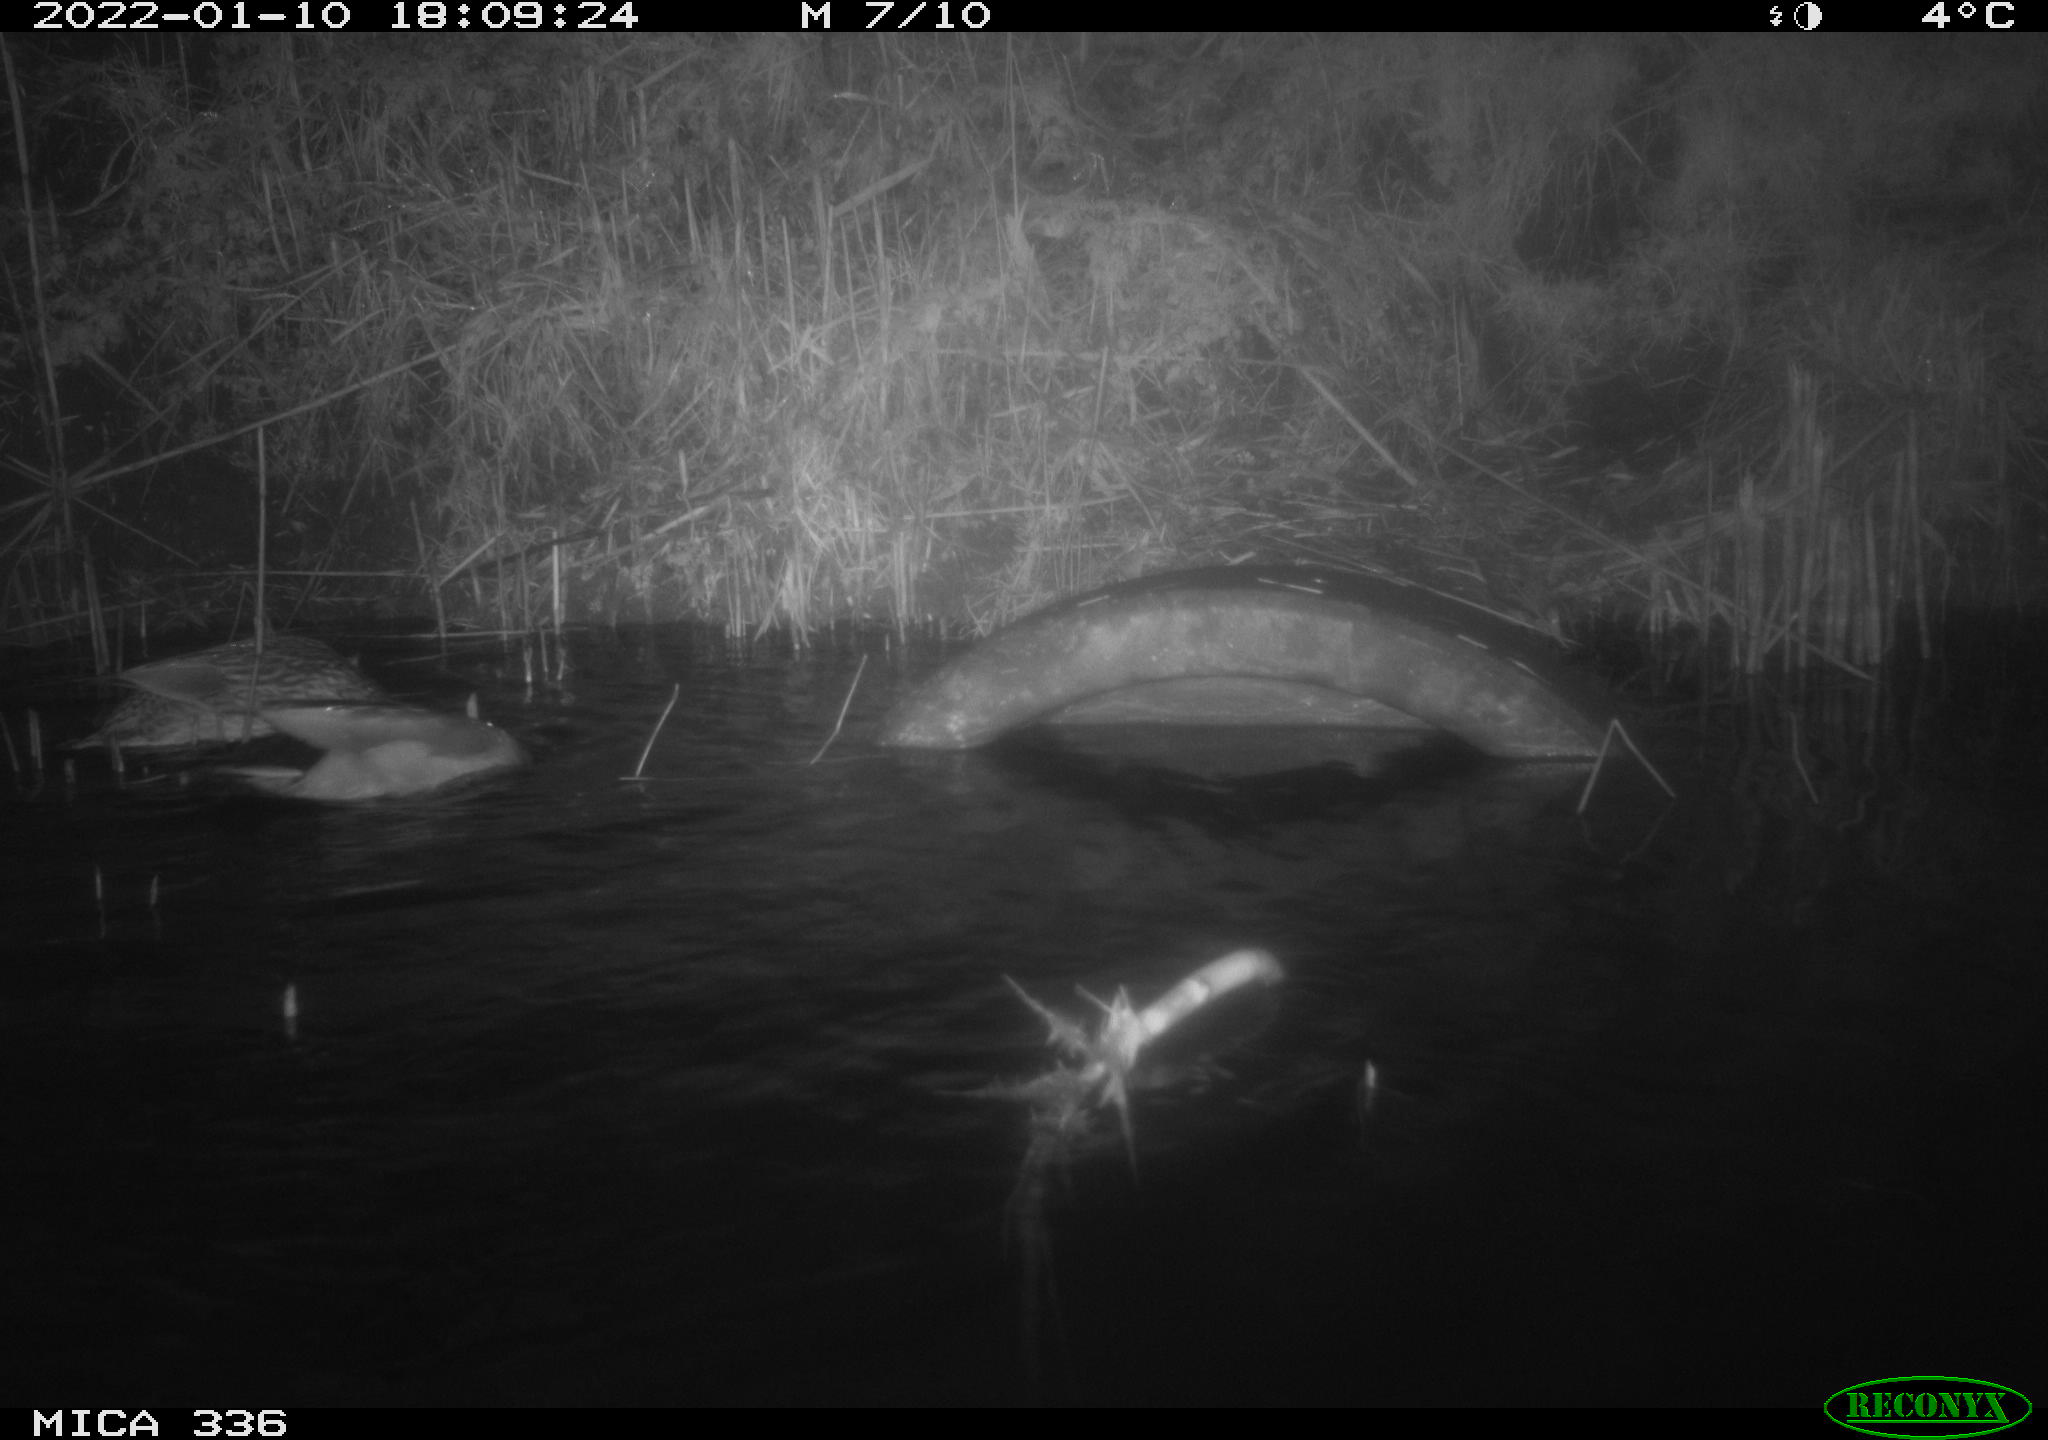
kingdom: Animalia
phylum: Chordata
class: Aves
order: Anseriformes
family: Anatidae
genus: Anas
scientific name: Anas platyrhynchos
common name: Mallard
